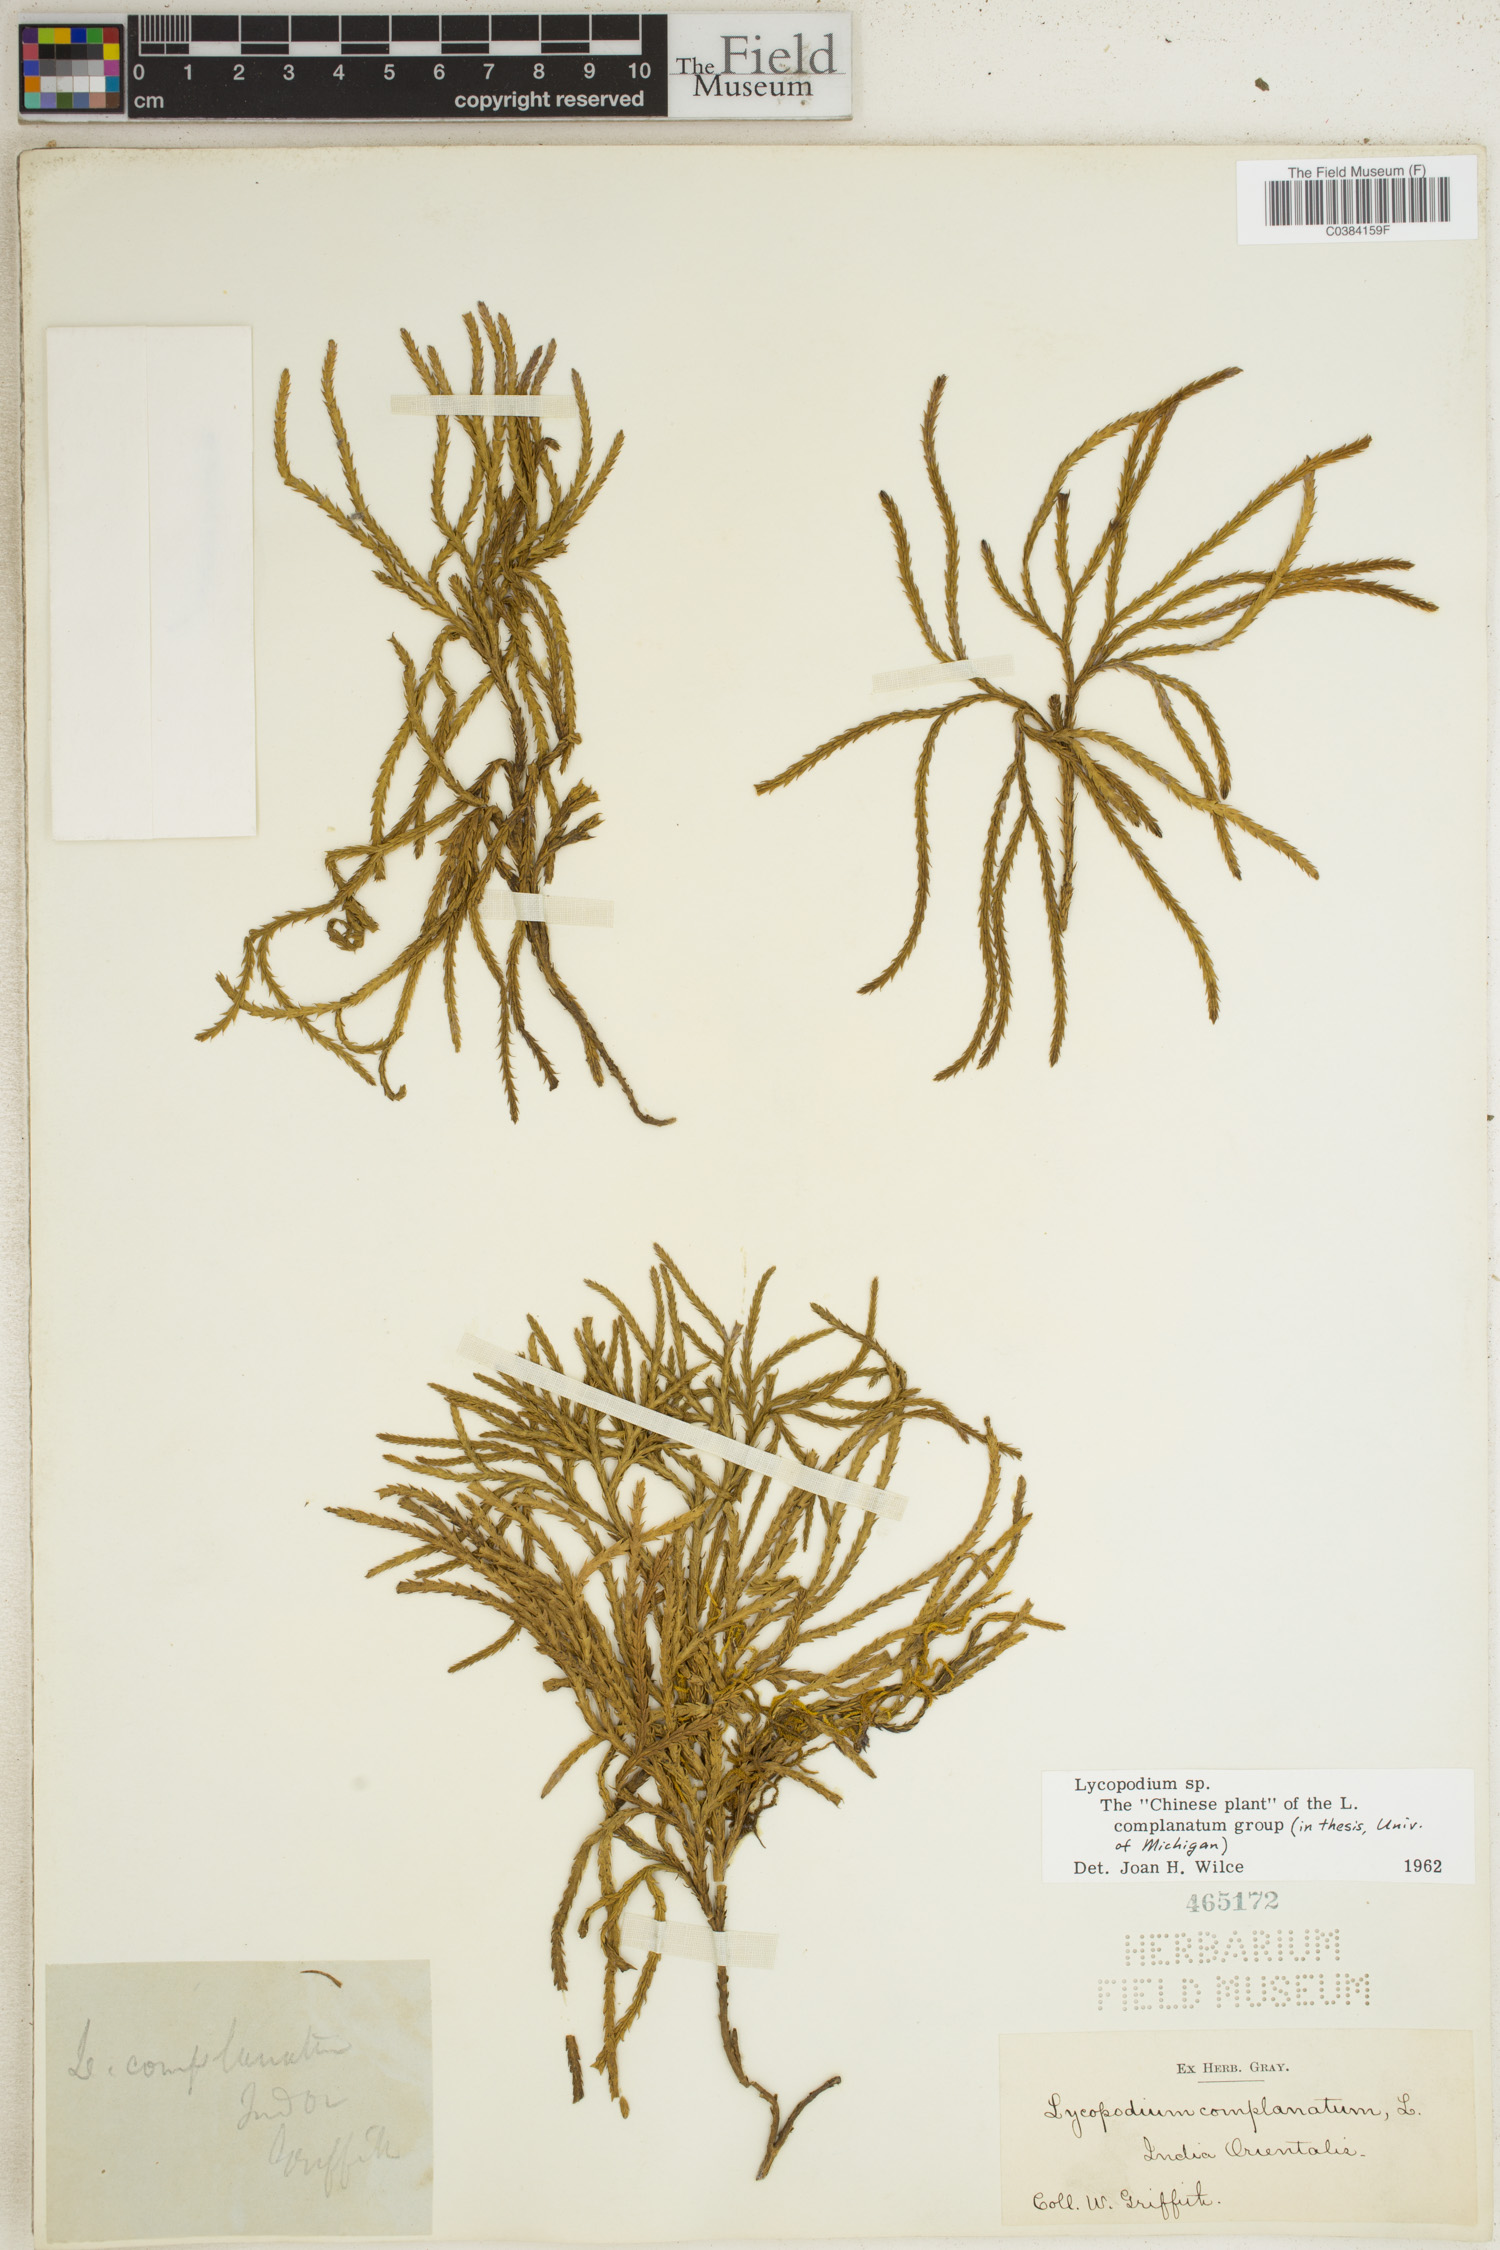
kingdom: Plantae
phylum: Tracheophyta
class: Lycopodiopsida
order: Lycopodiales
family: Lycopodiaceae
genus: Lycopodium
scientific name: Lycopodium
